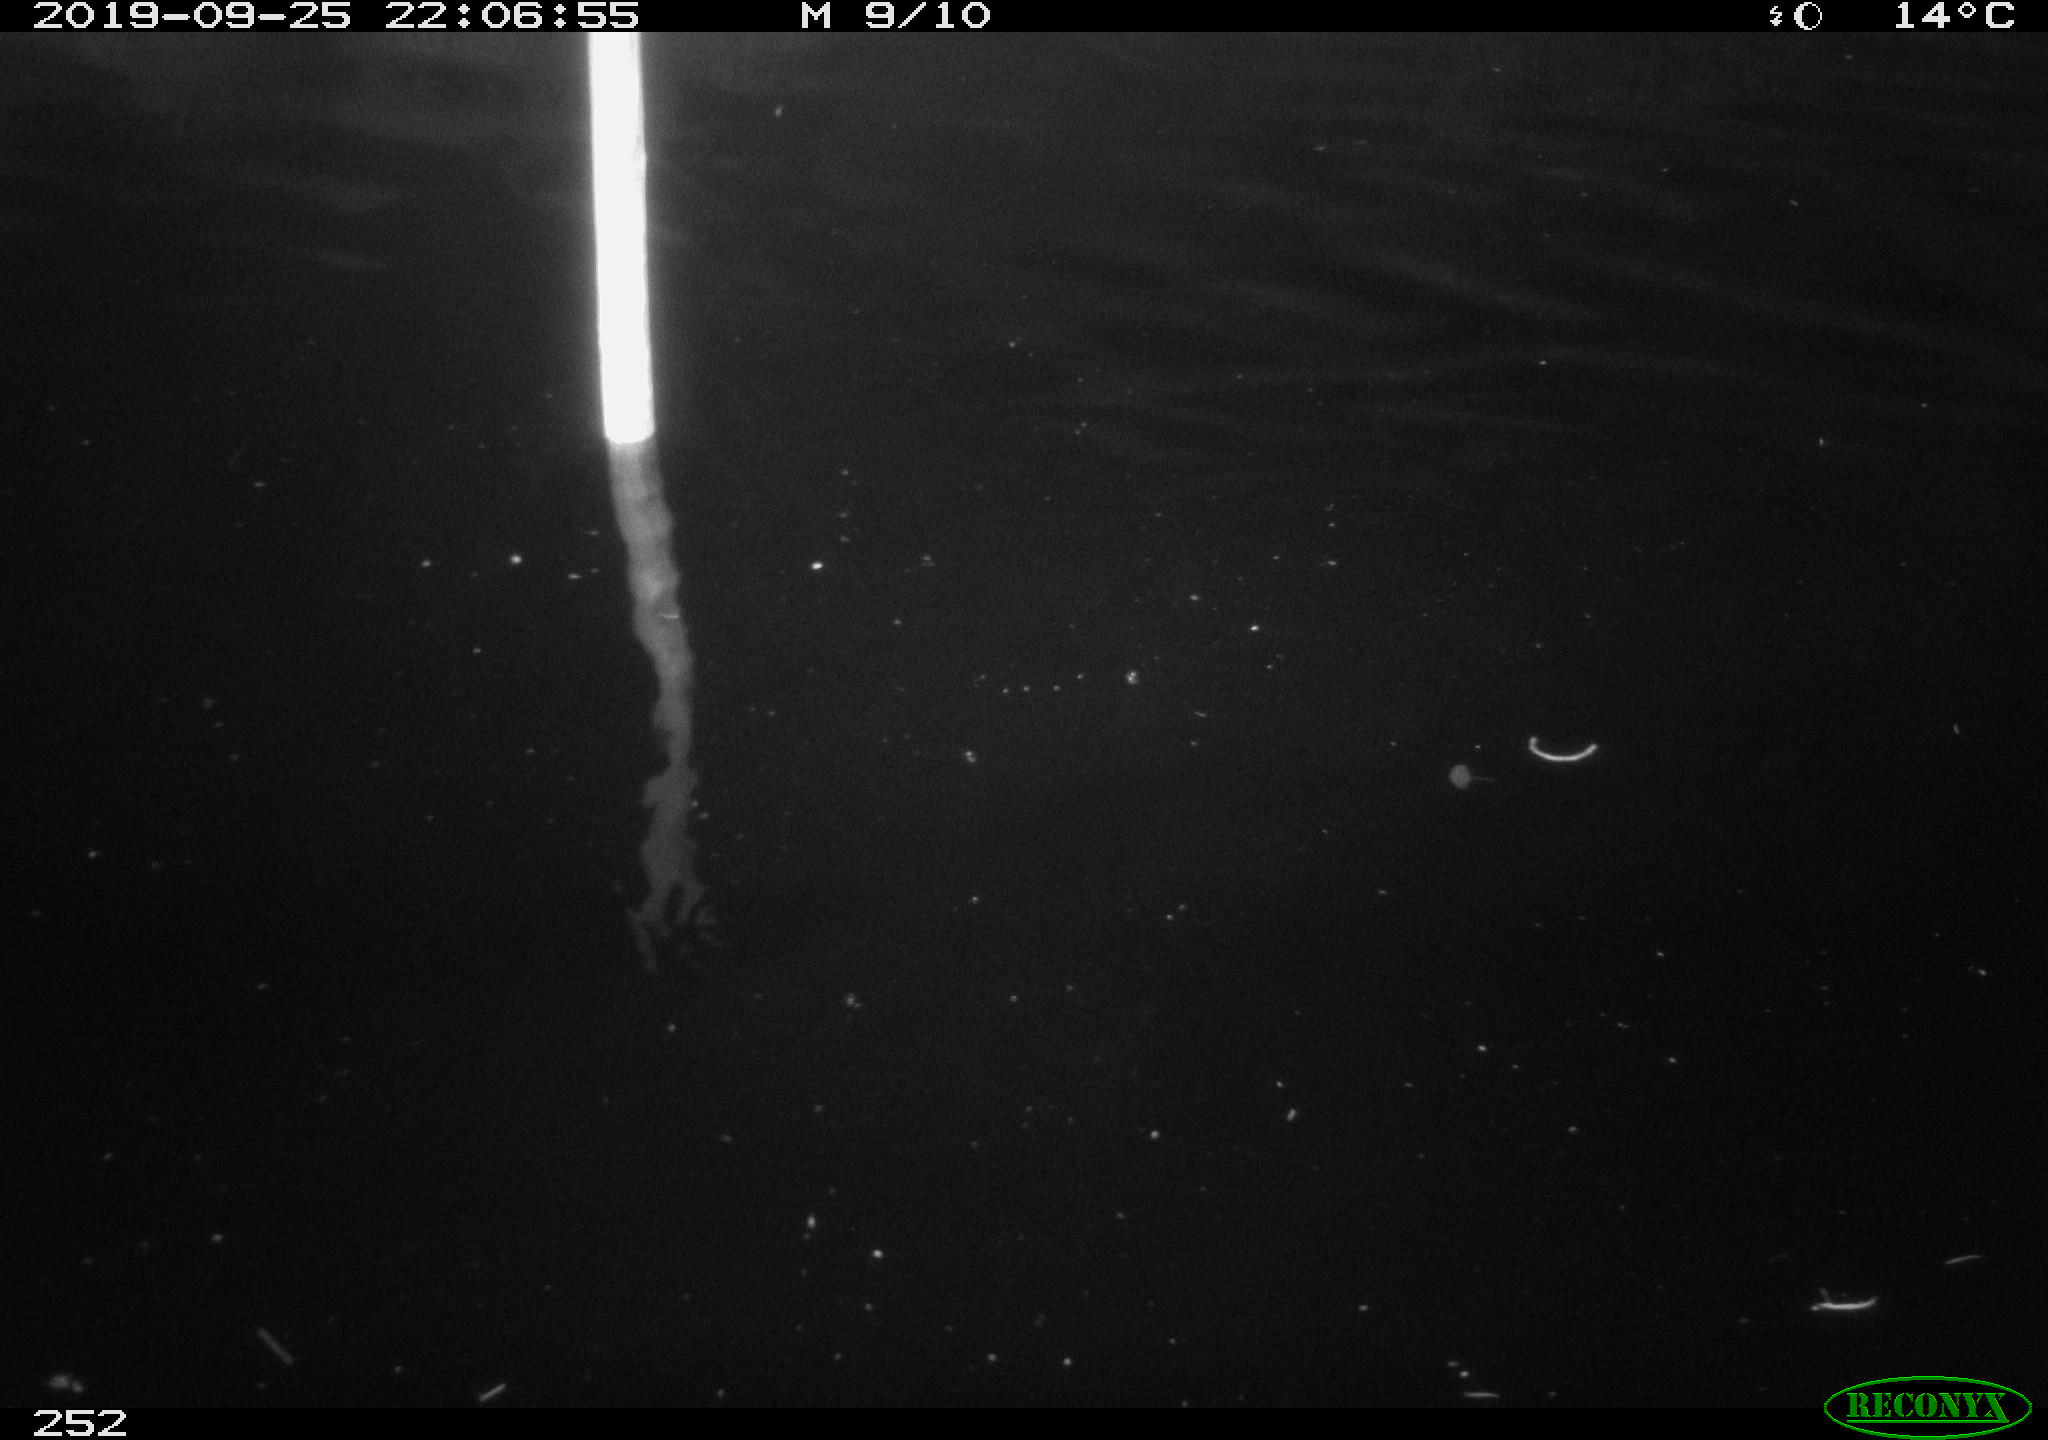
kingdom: Animalia
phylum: Chordata
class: Aves
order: Anseriformes
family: Anatidae
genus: Anas
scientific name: Anas platyrhynchos
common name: Mallard
